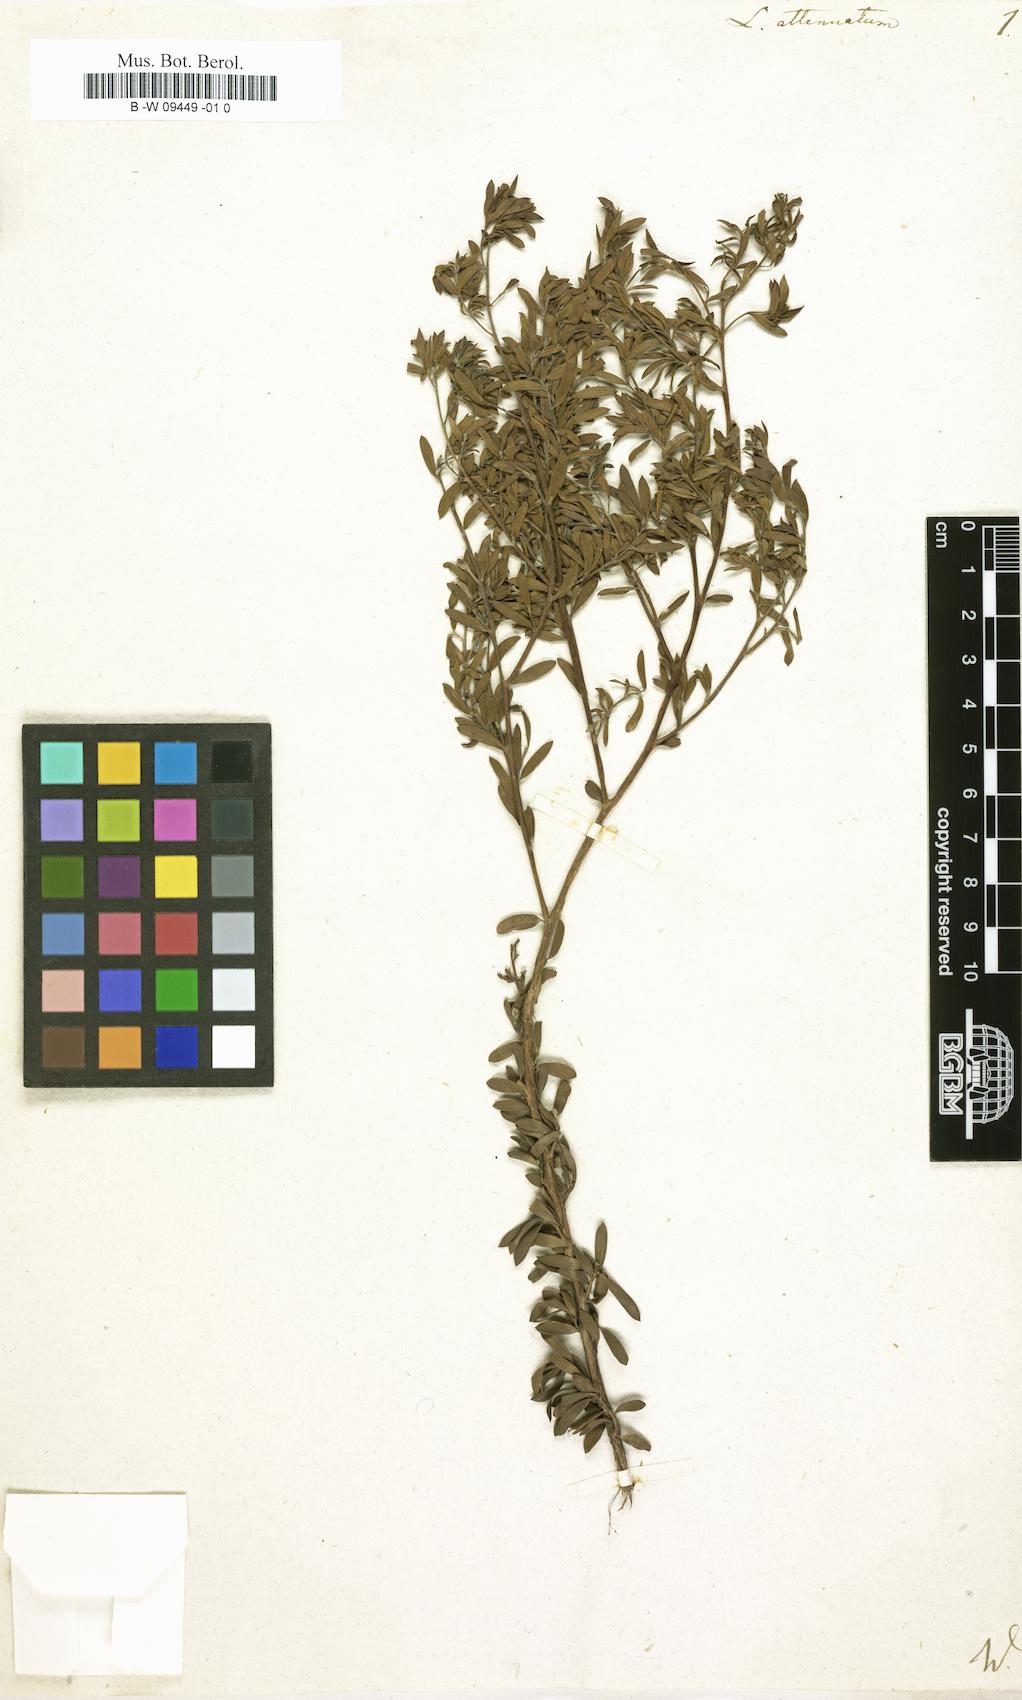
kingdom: Plantae
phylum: Tracheophyta
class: Magnoliopsida
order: Myrtales
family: Myrtaceae
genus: Leptospermum
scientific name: Leptospermum trinervium
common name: Flaky-barked tea-tree
